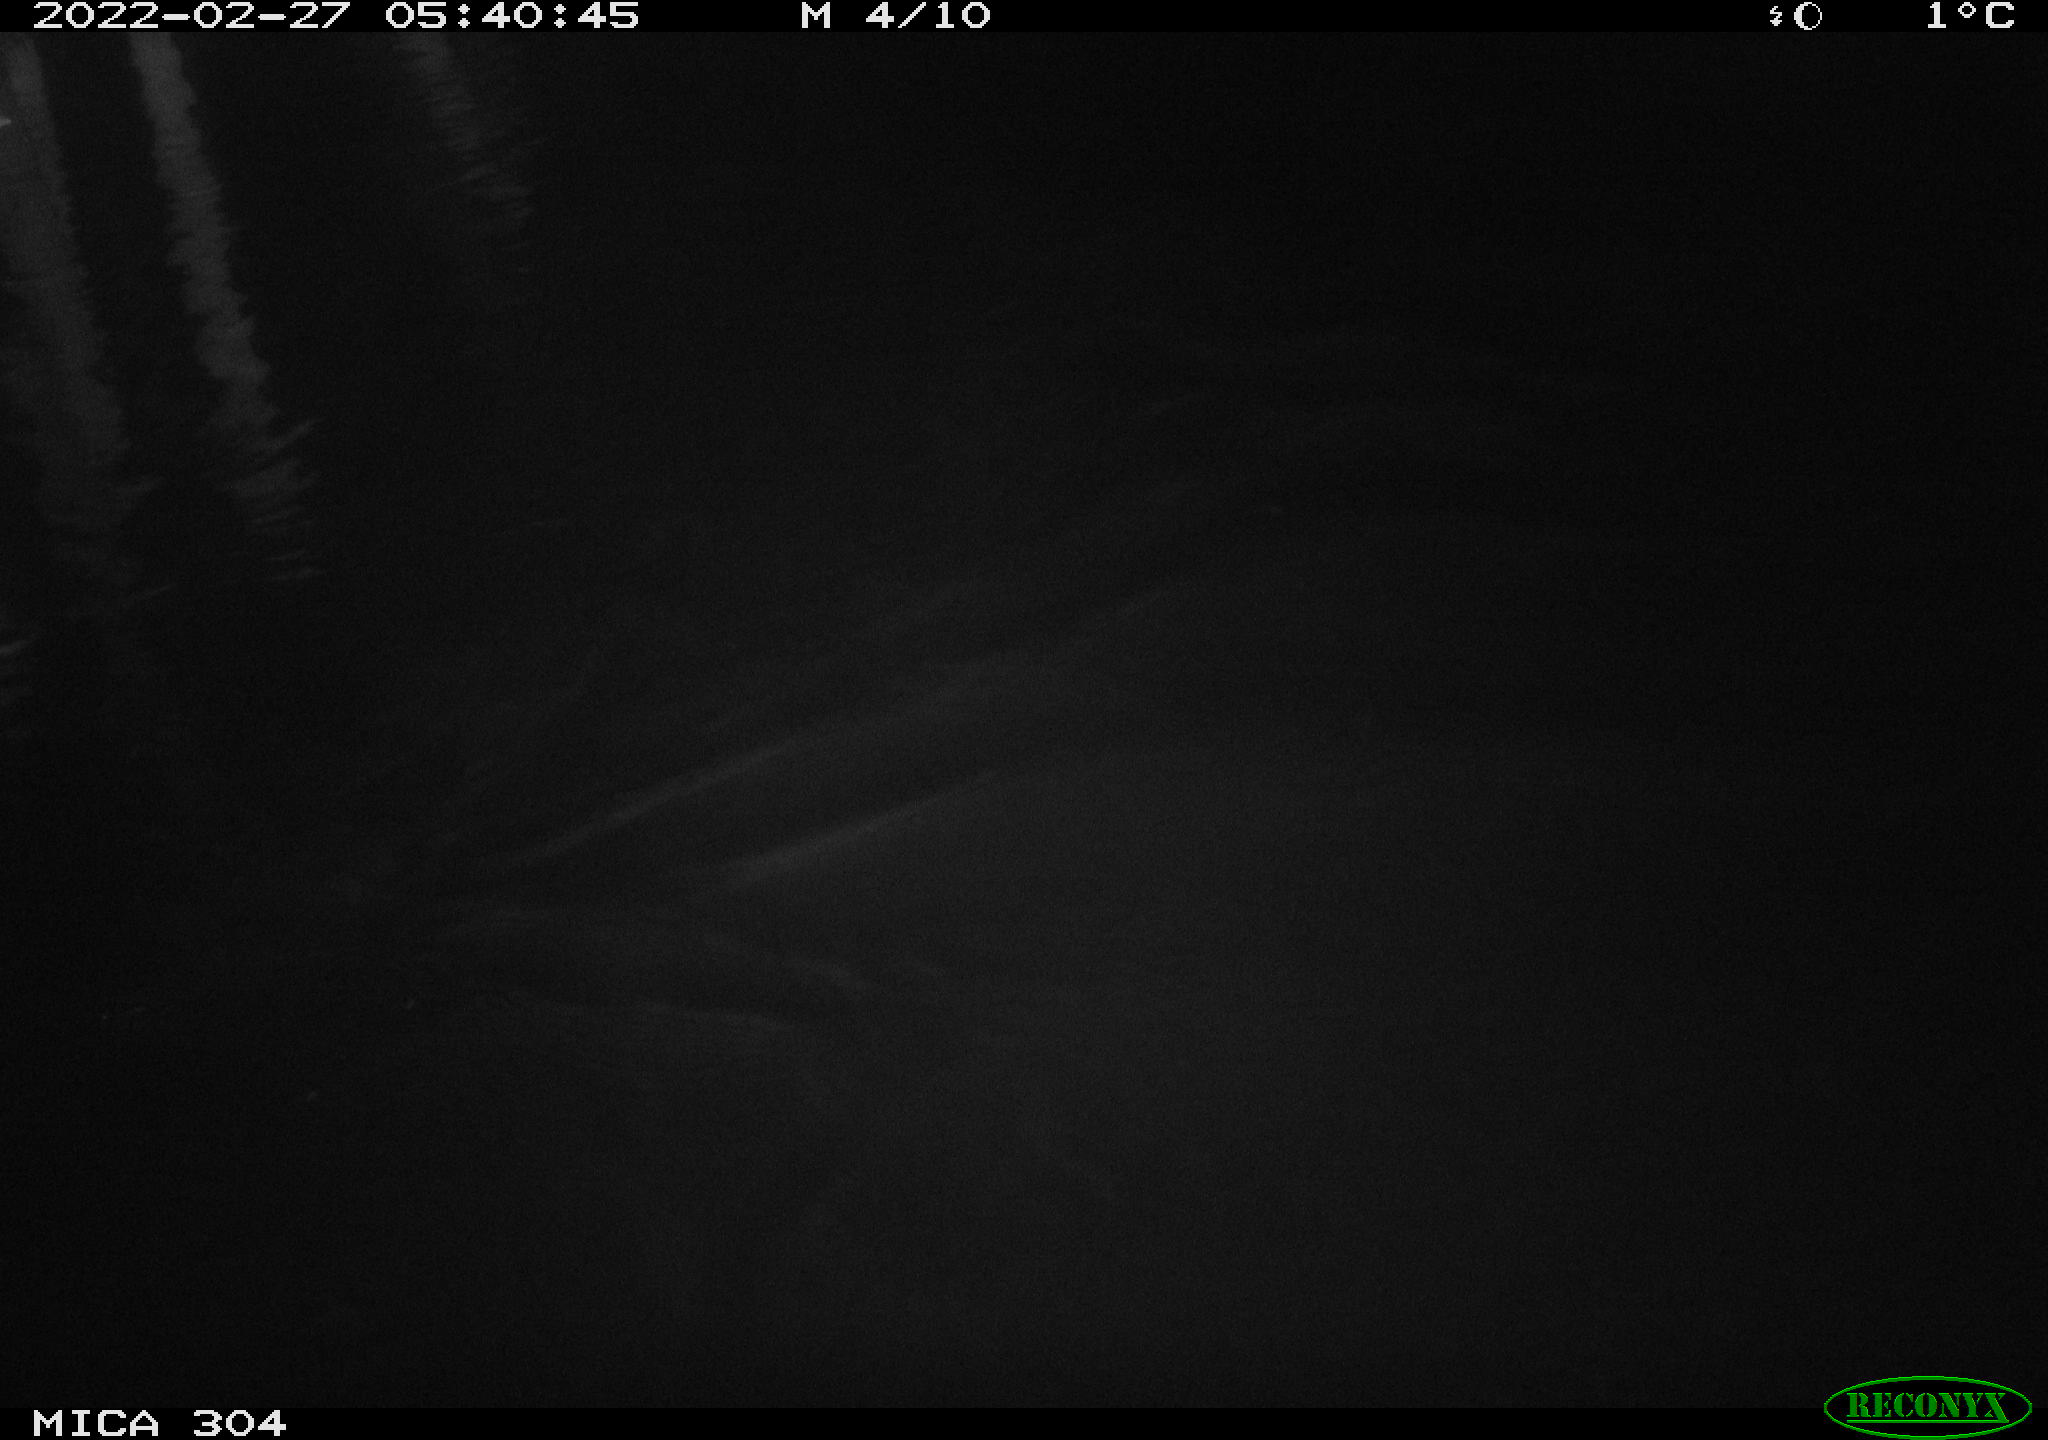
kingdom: Animalia
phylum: Chordata
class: Aves
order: Anseriformes
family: Anatidae
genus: Anas
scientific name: Anas platyrhynchos
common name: Mallard
